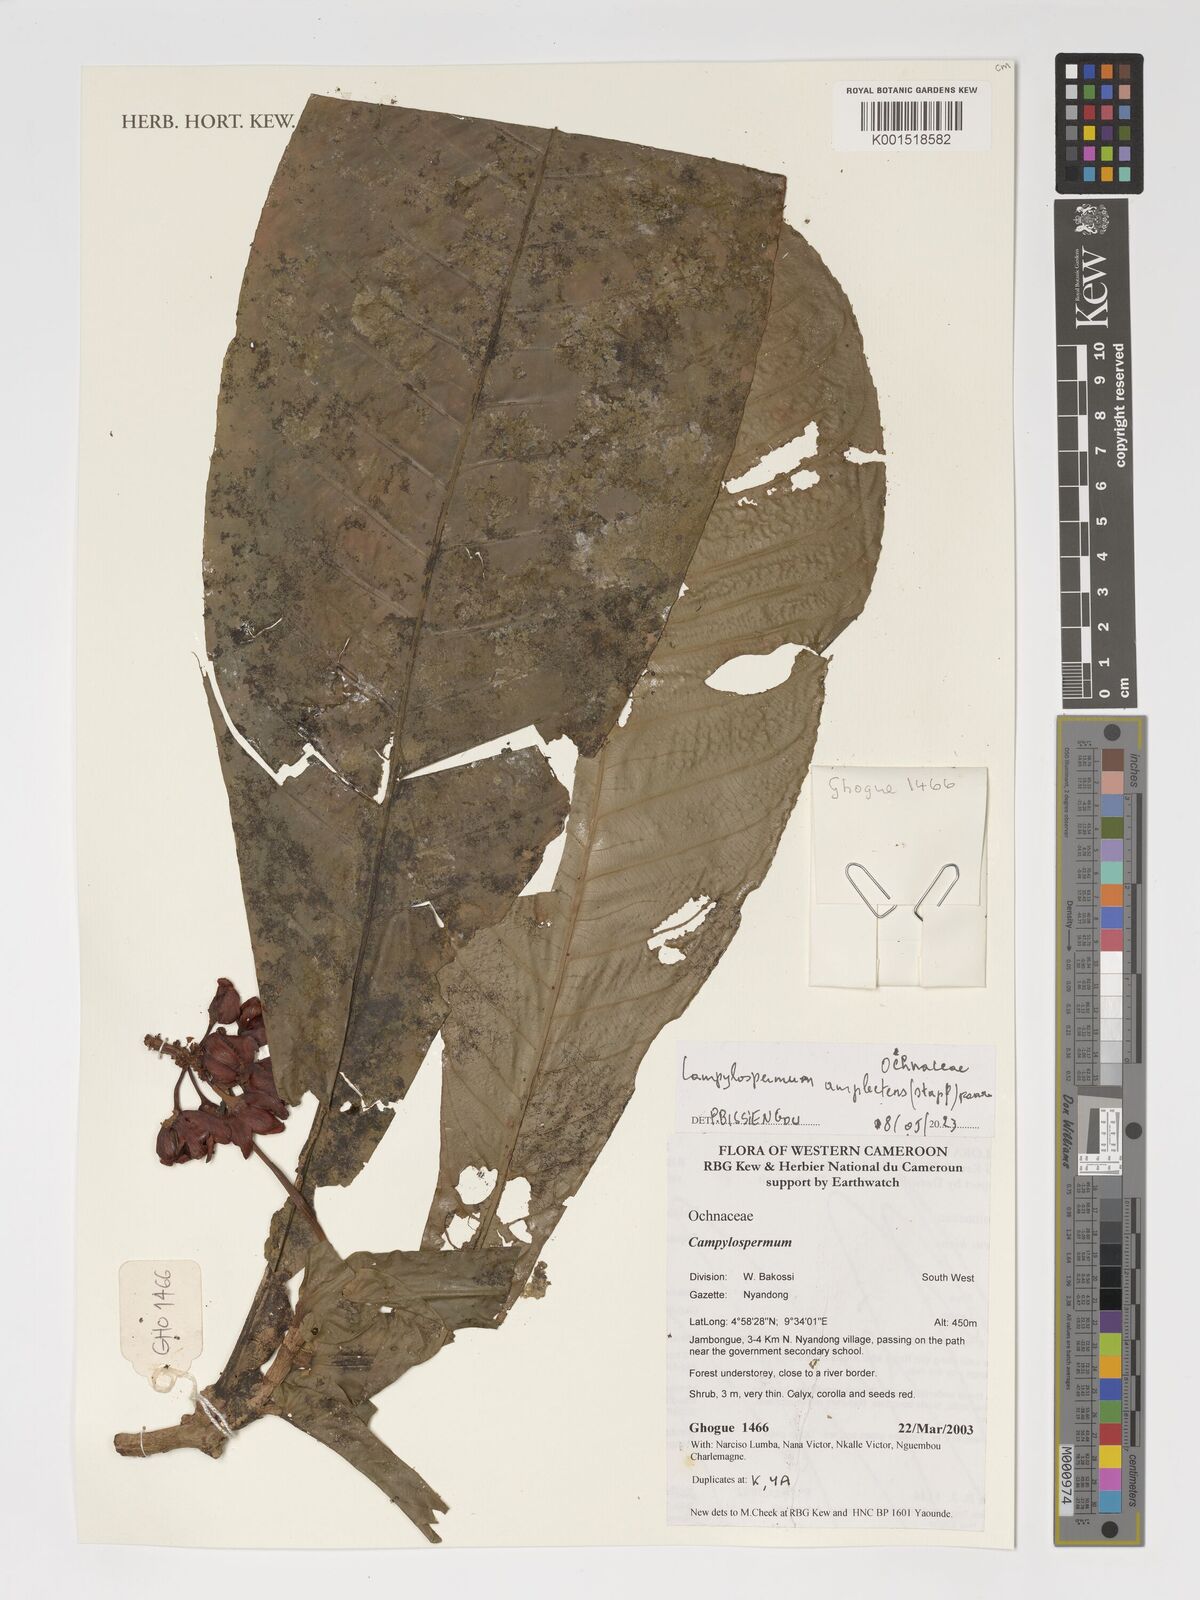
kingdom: Plantae
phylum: Tracheophyta
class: Magnoliopsida
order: Malpighiales
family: Ochnaceae
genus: Campylospermum
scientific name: Campylospermum amplectens
